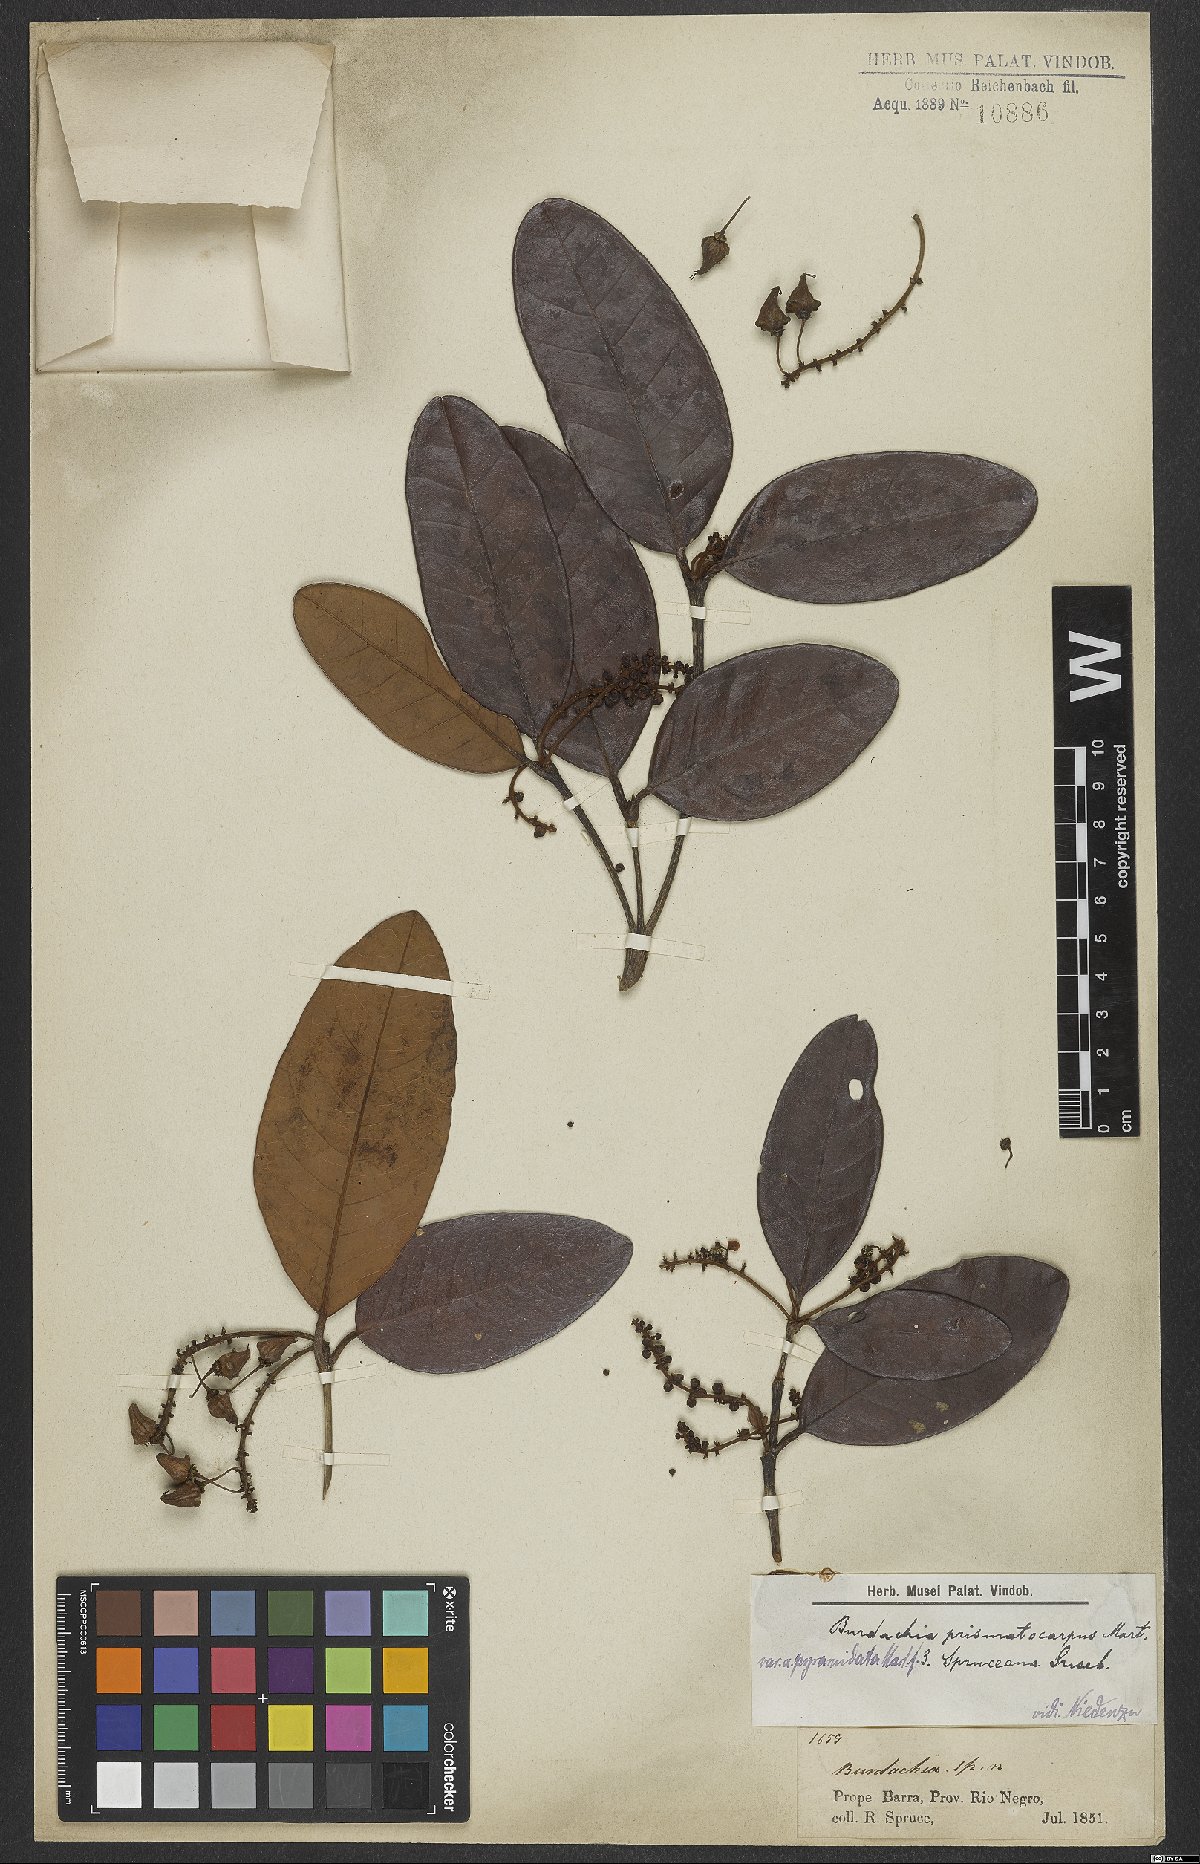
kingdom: Plantae
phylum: Tracheophyta
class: Magnoliopsida
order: Malpighiales
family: Malpighiaceae
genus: Burdachia
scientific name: Burdachia prismatocarpa
